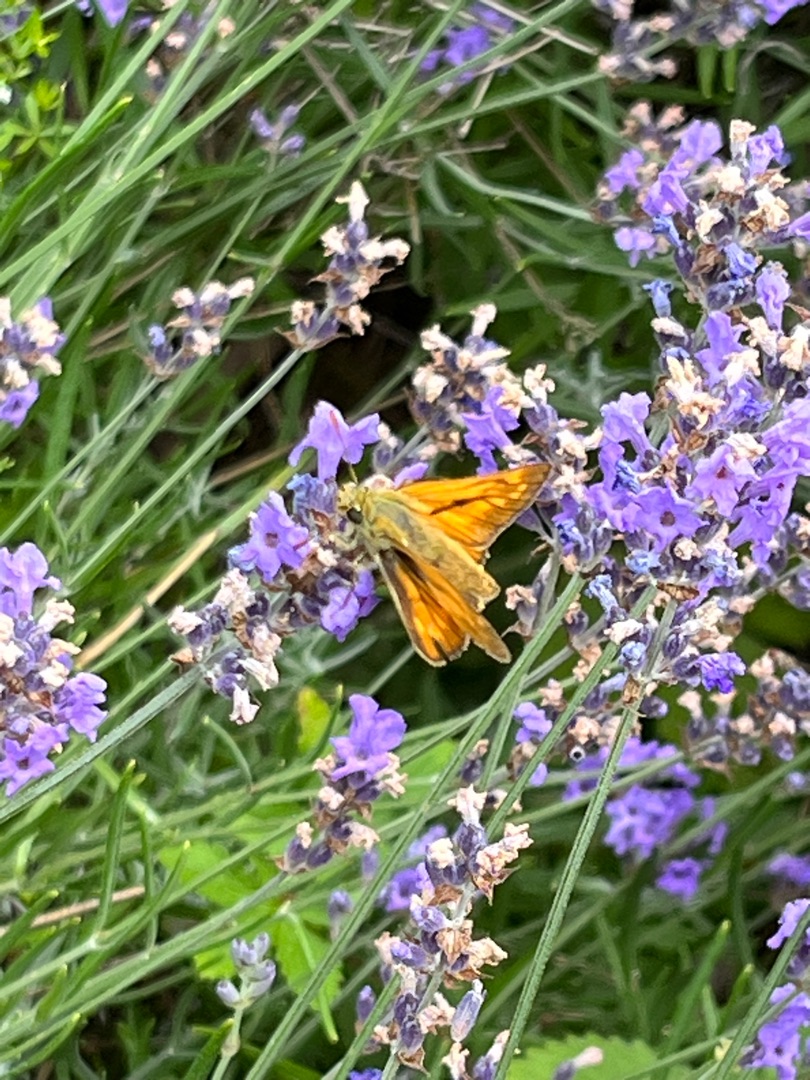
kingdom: Animalia
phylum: Arthropoda
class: Insecta
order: Lepidoptera
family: Hesperiidae
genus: Ochlodes
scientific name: Ochlodes venata
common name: Stor bredpande
